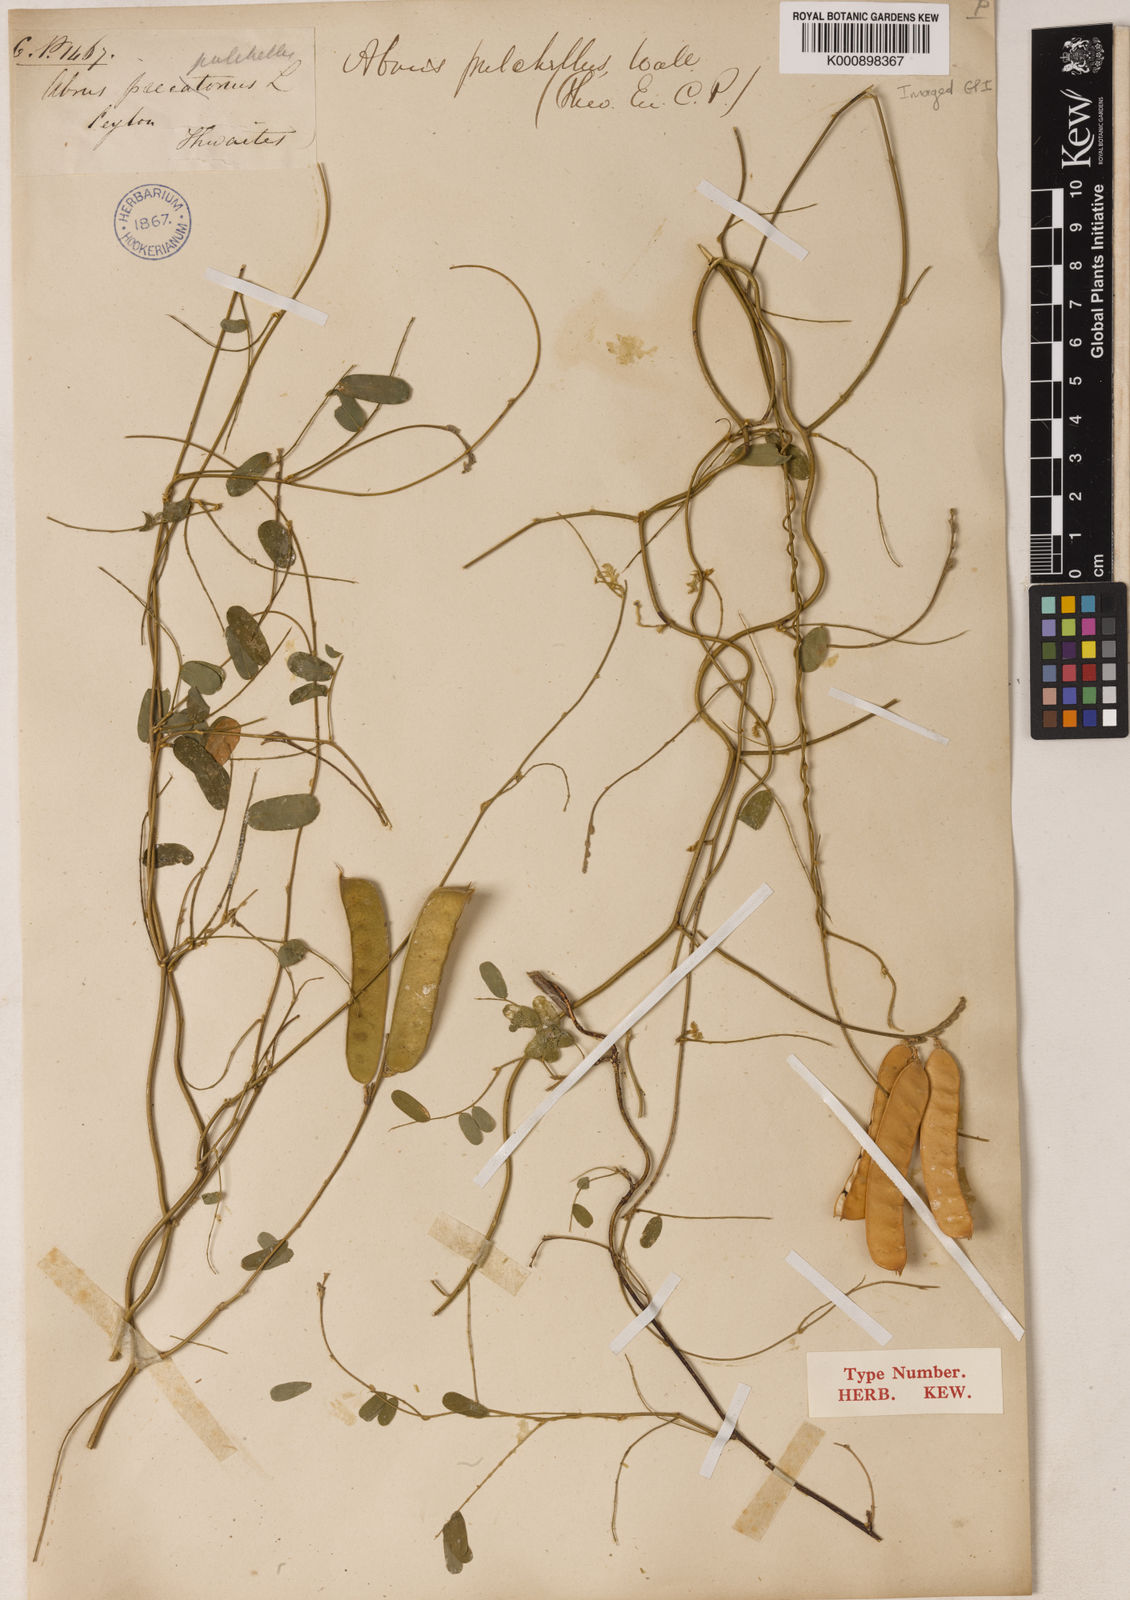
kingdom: Plantae
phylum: Tracheophyta
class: Magnoliopsida
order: Fabales
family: Fabaceae
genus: Abrus
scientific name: Abrus
